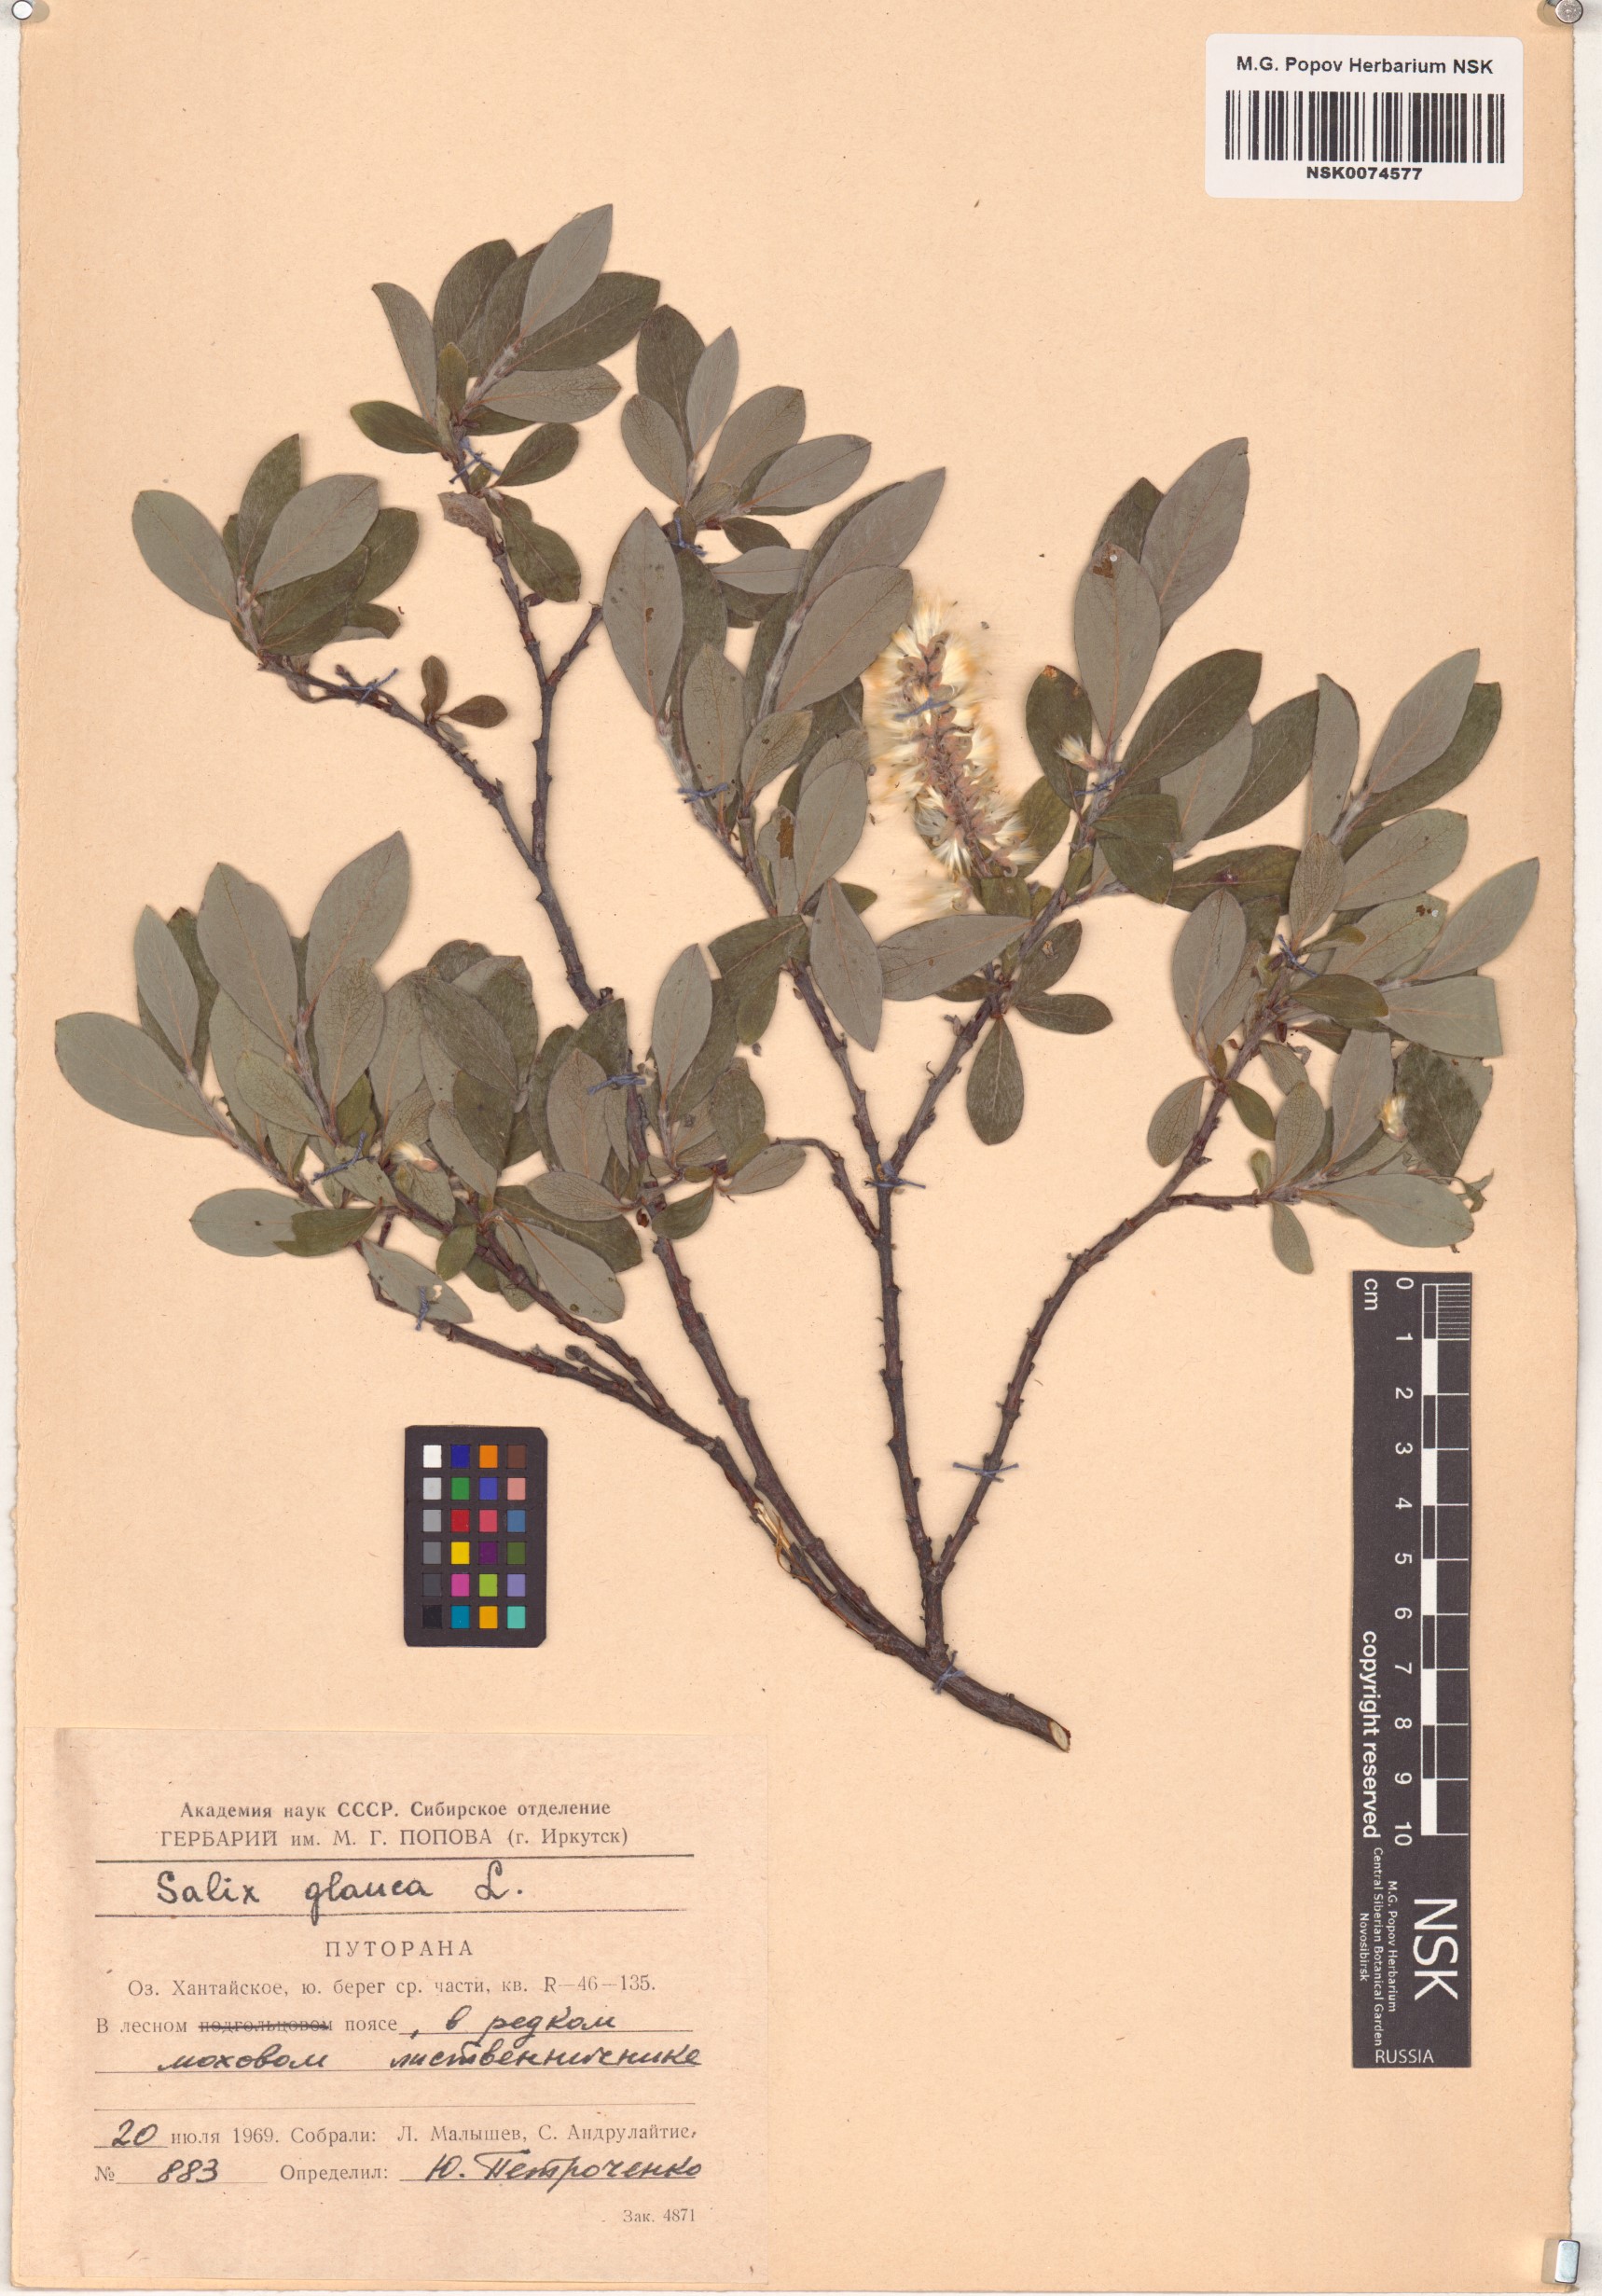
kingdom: Plantae
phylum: Tracheophyta
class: Magnoliopsida
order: Malpighiales
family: Salicaceae
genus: Salix
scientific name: Salix glauca
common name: Glaucous willow
